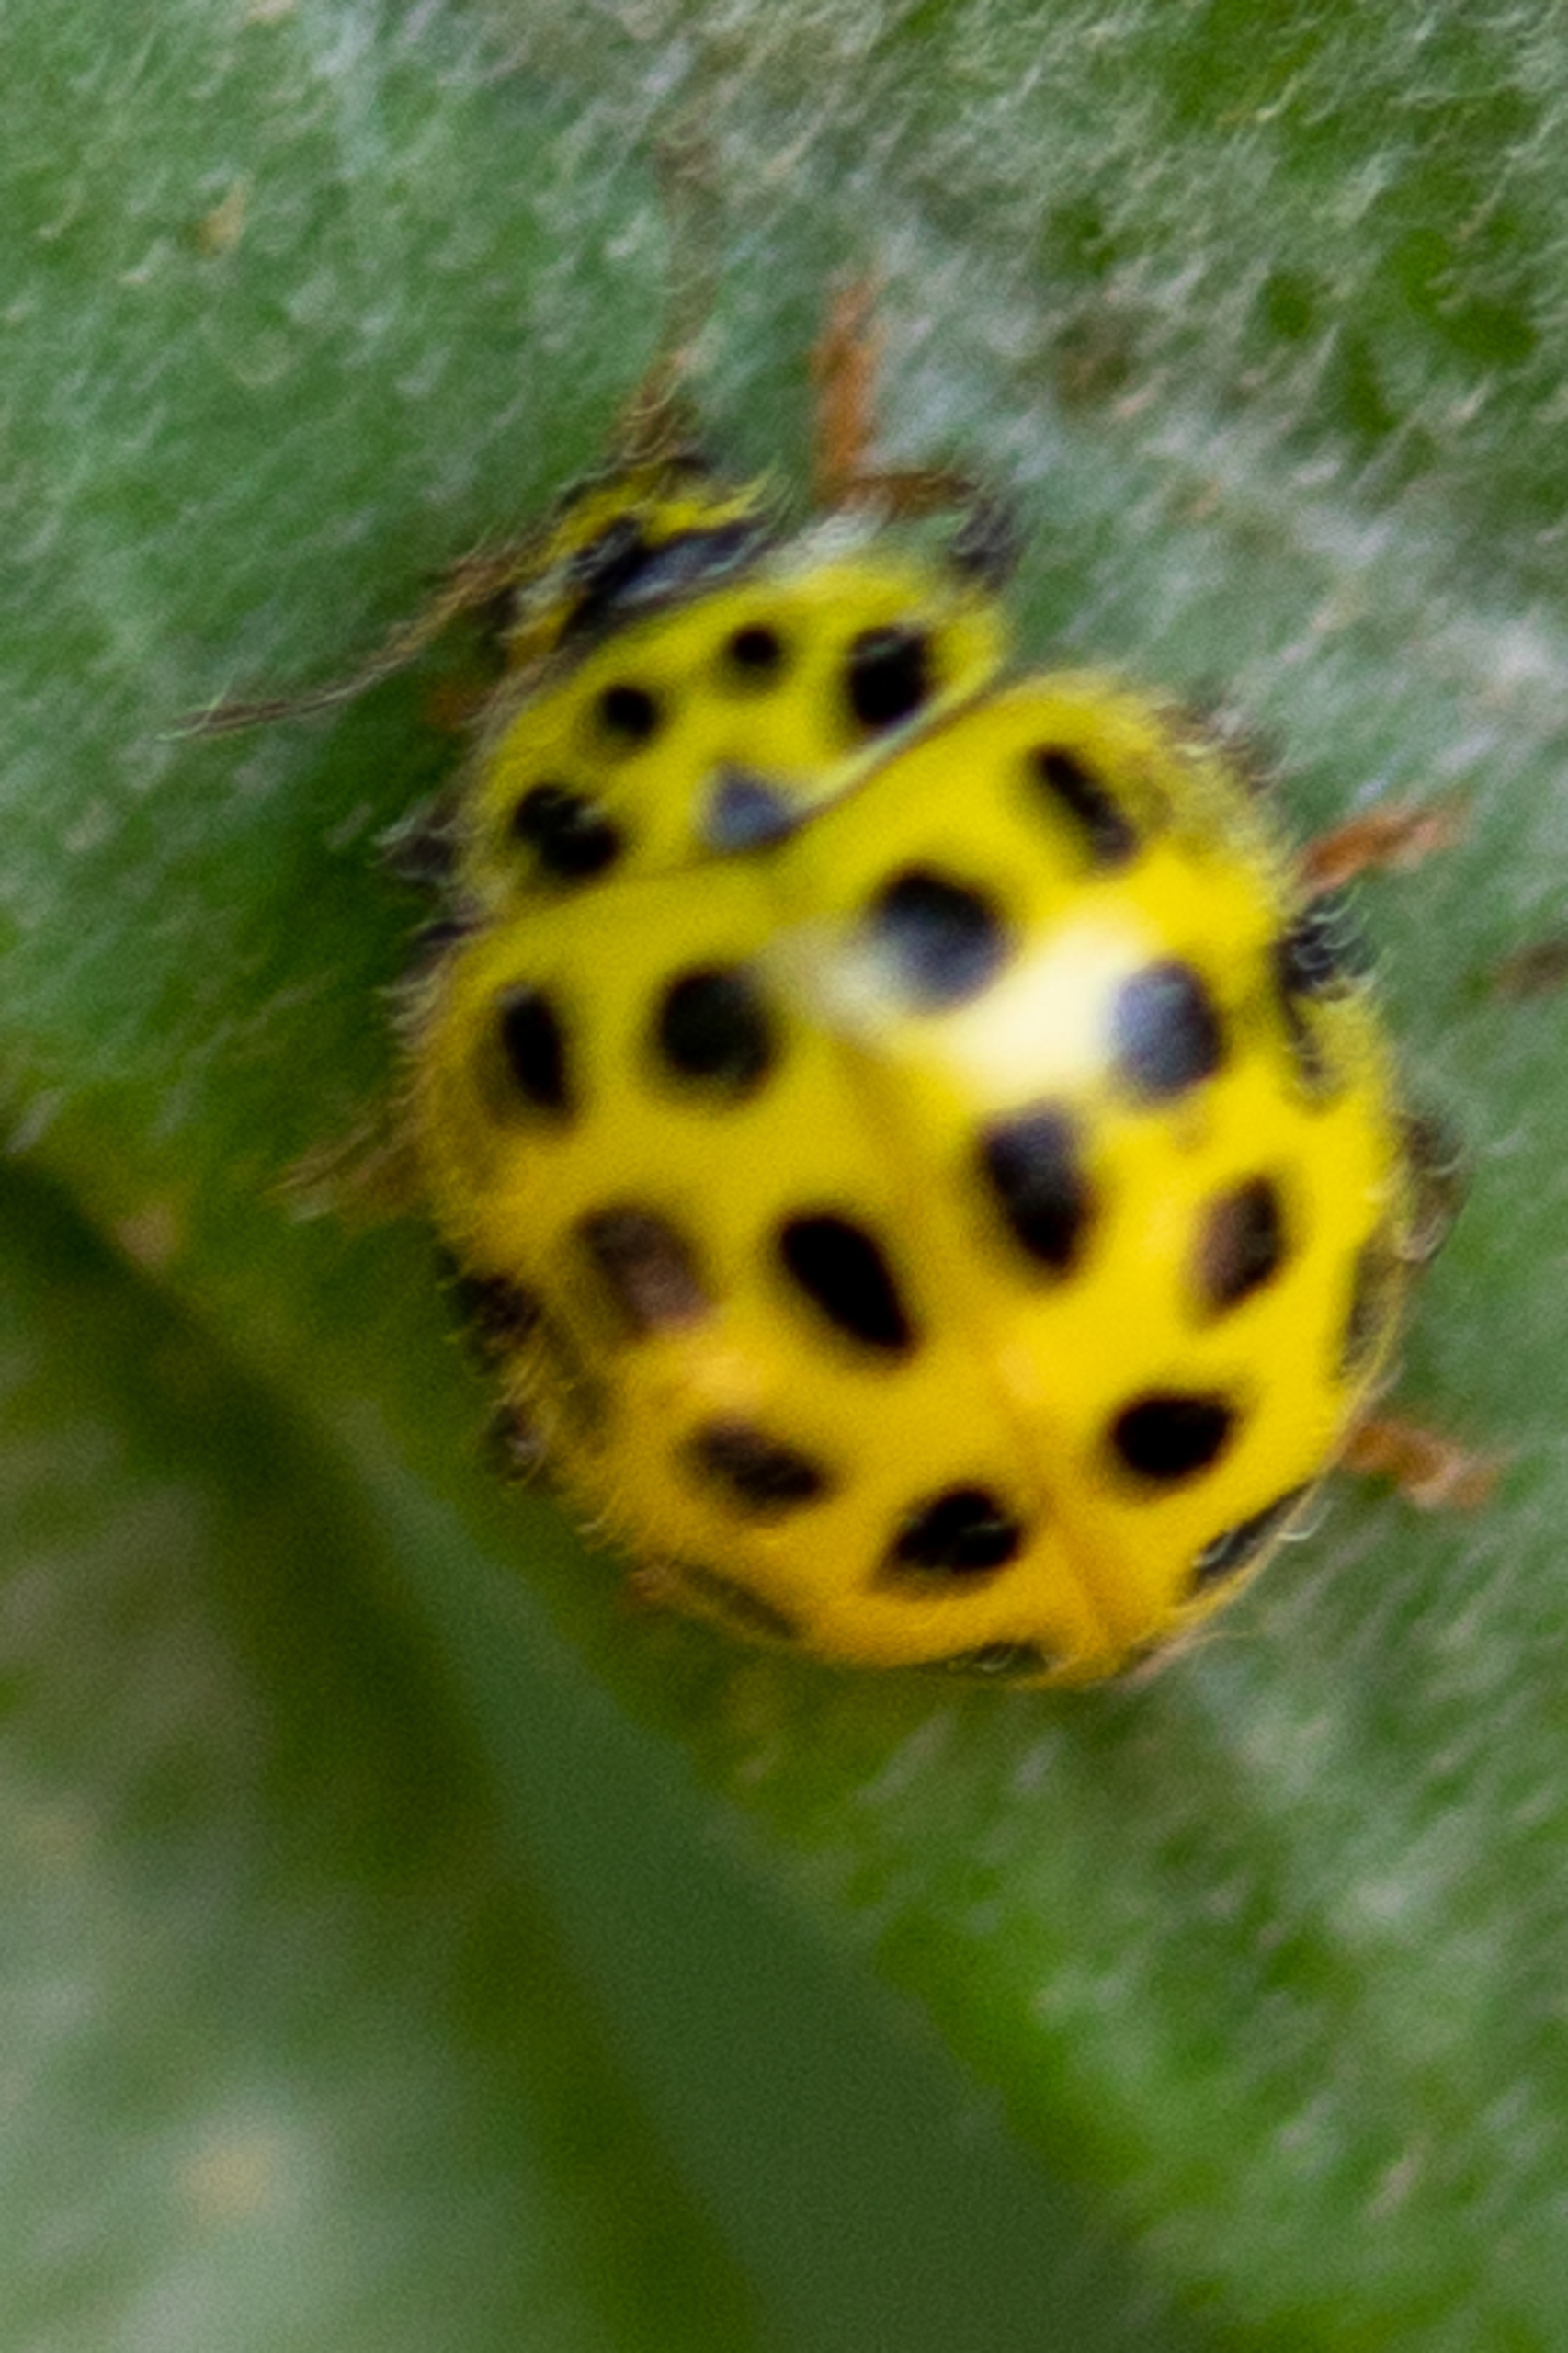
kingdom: Animalia
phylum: Arthropoda
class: Insecta
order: Coleoptera
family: Coccinellidae
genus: Psyllobora
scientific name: Psyllobora vigintiduopunctata
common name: Toogtyveplettet mariehøne
